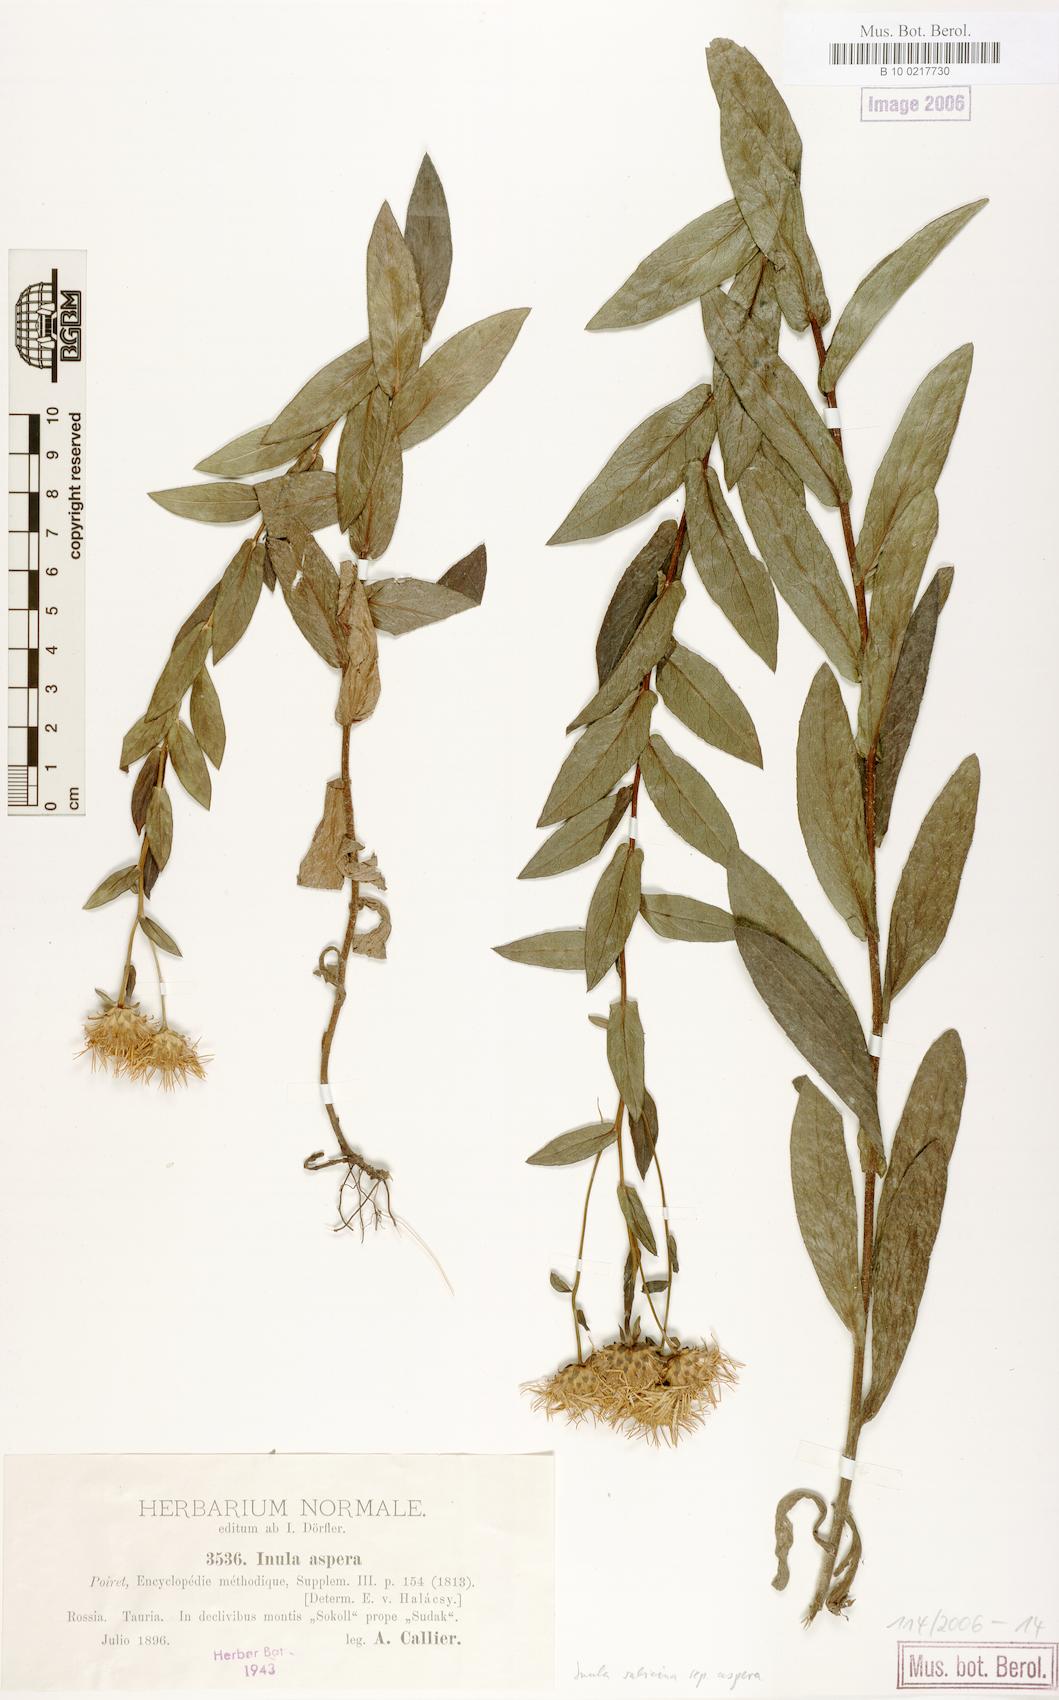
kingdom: Plantae
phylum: Tracheophyta
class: Magnoliopsida
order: Asterales
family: Asteraceae
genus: Pentanema
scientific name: Pentanema salicinum
